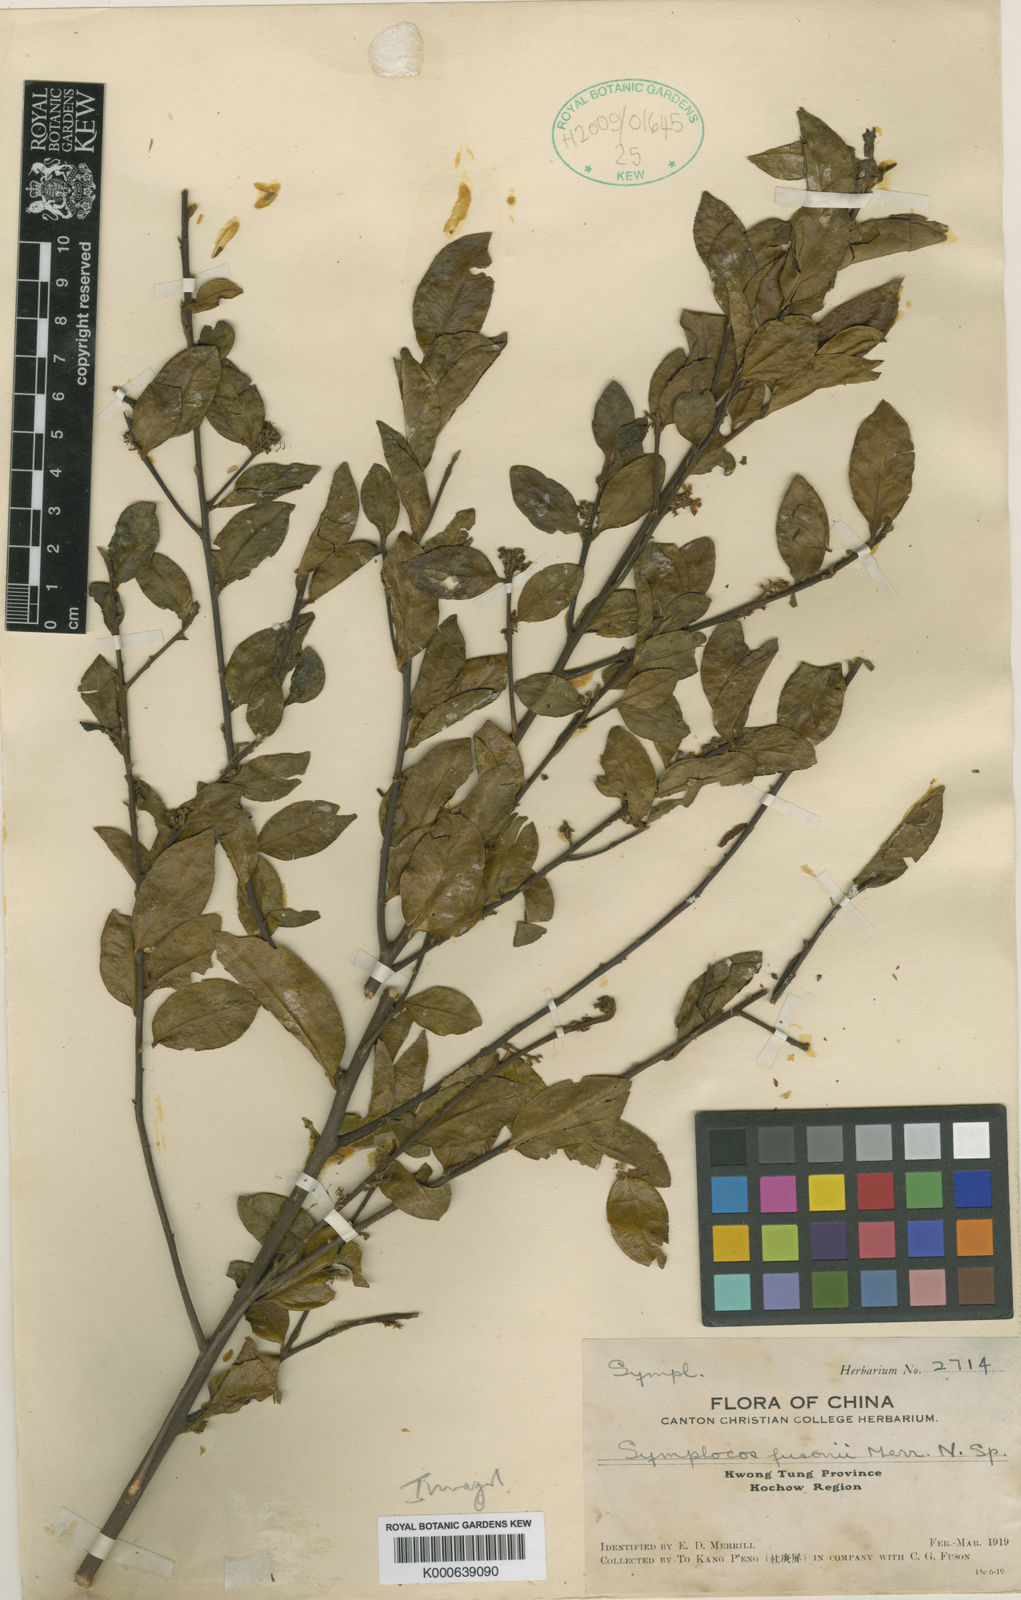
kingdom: Plantae
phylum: Tracheophyta
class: Magnoliopsida
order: Ericales
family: Symplocaceae
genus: Symplocos
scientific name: Symplocos anomala
